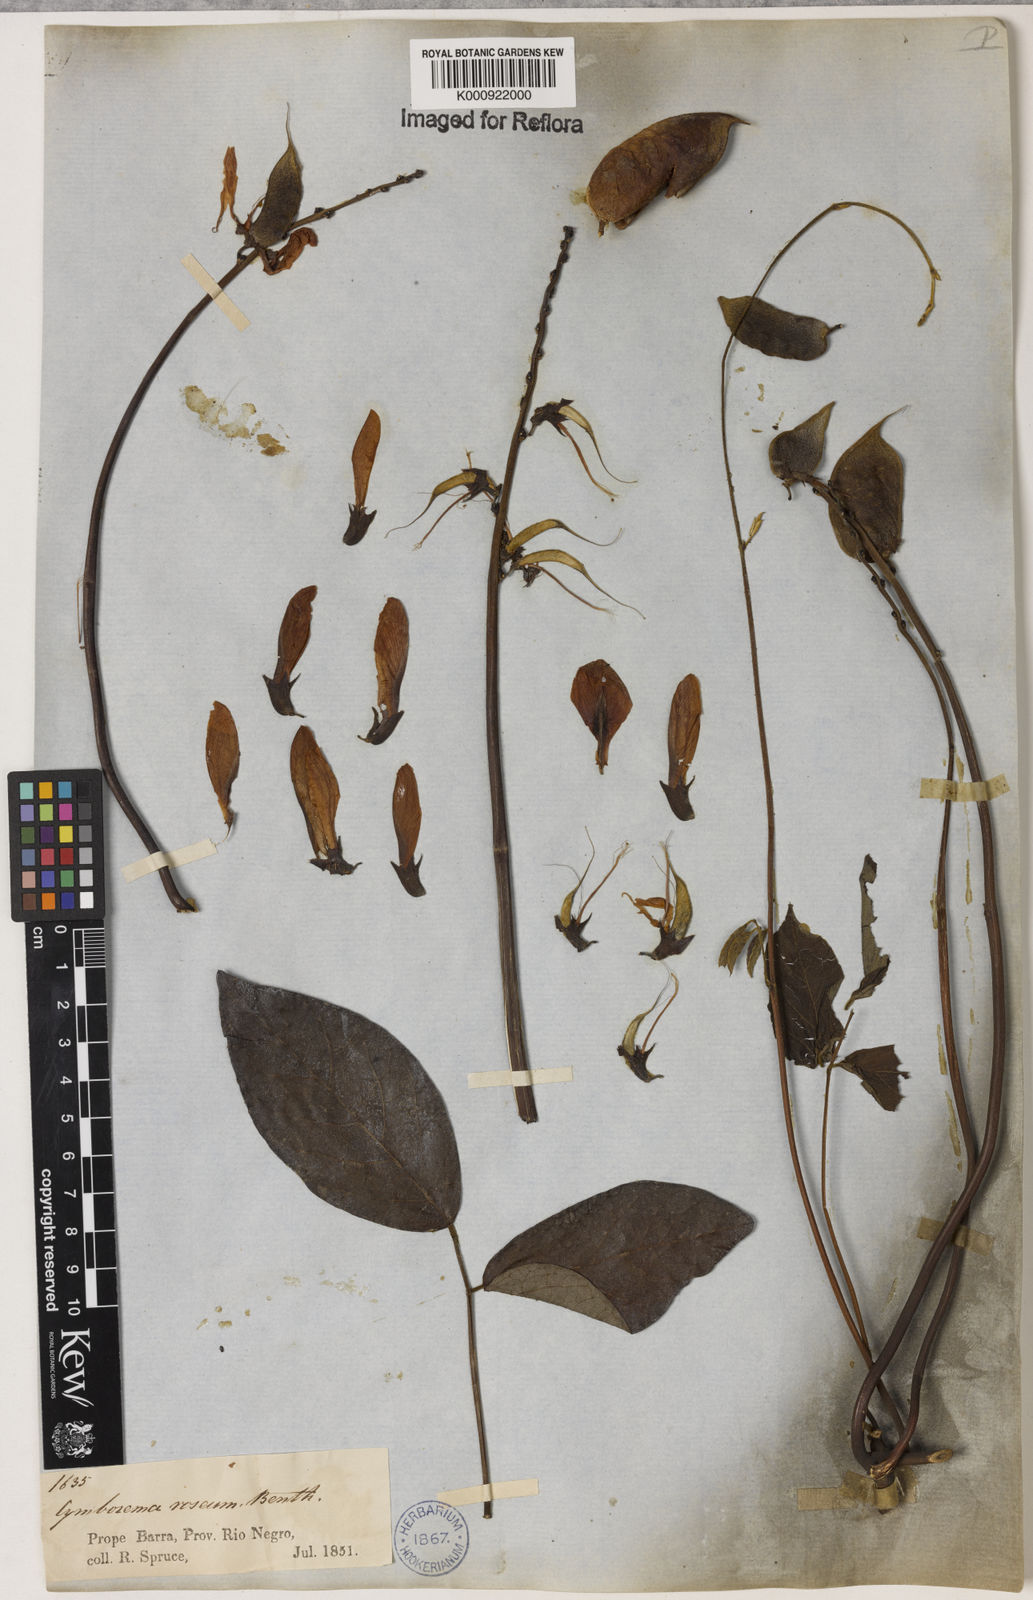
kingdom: Plantae
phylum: Tracheophyta
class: Magnoliopsida
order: Fabales
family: Fabaceae
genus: Cymbosema
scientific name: Cymbosema roseum
